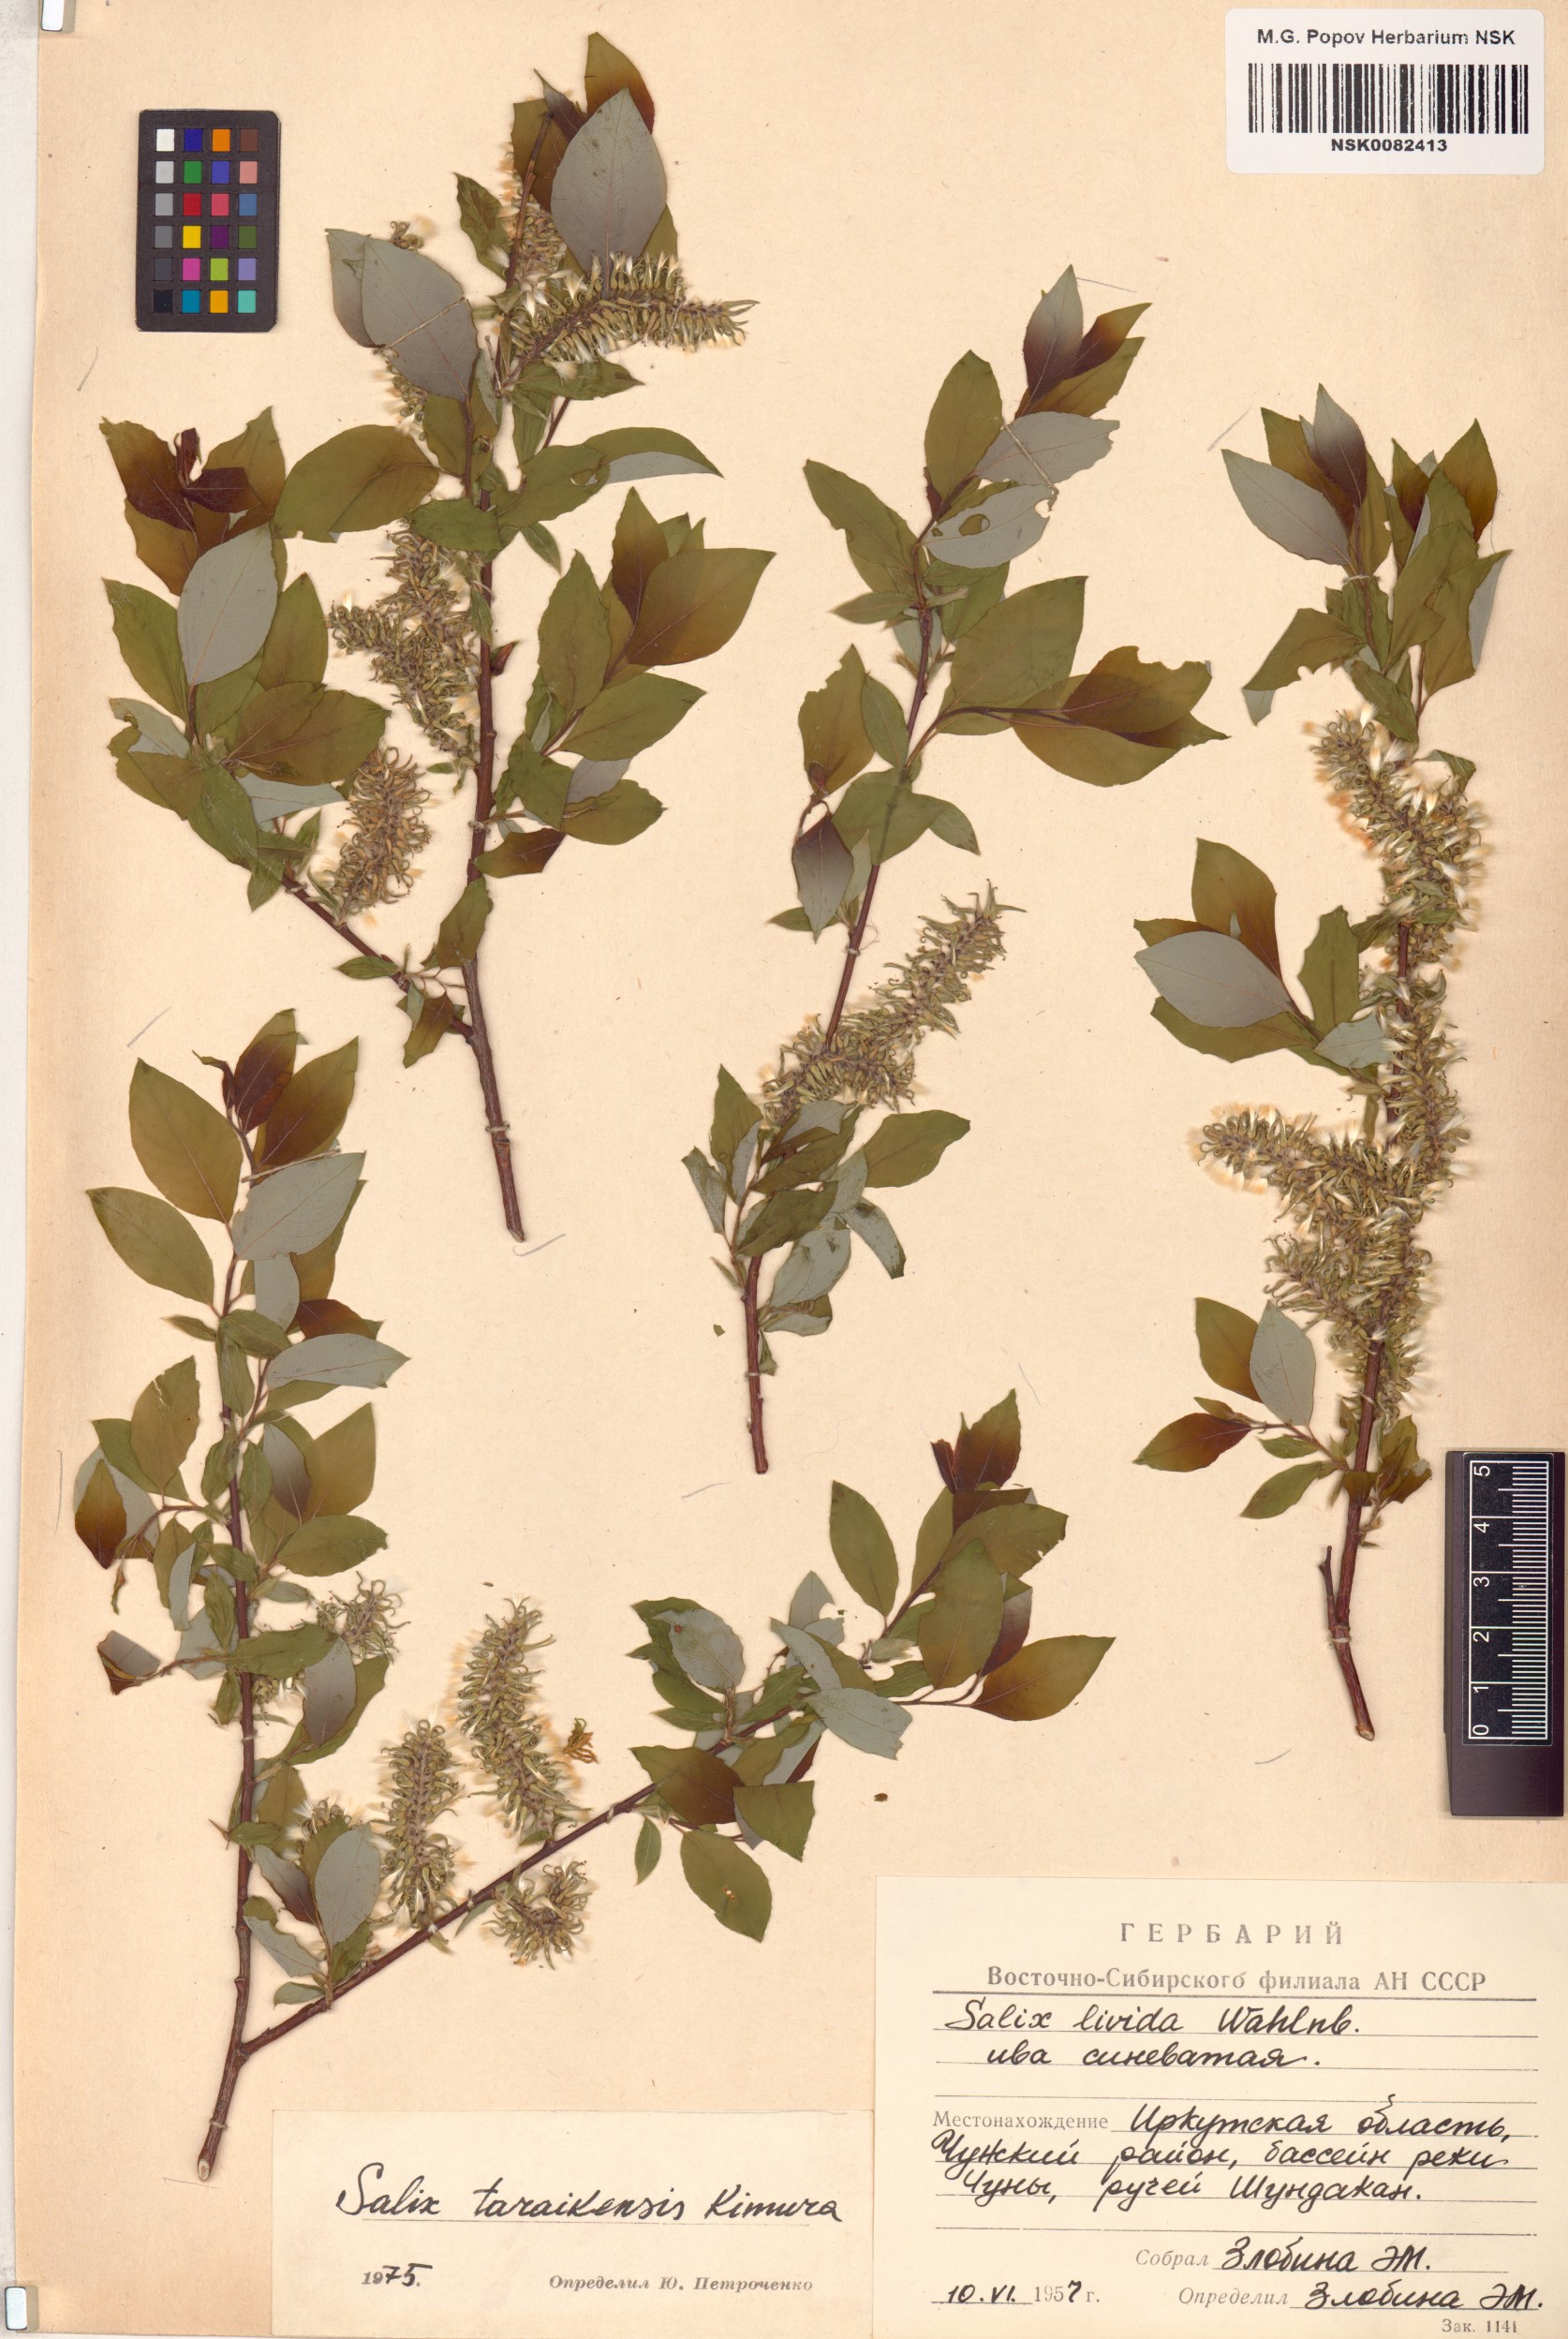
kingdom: Plantae
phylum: Tracheophyta
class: Magnoliopsida
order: Malpighiales
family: Salicaceae
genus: Salix
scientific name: Salix taraikensis
